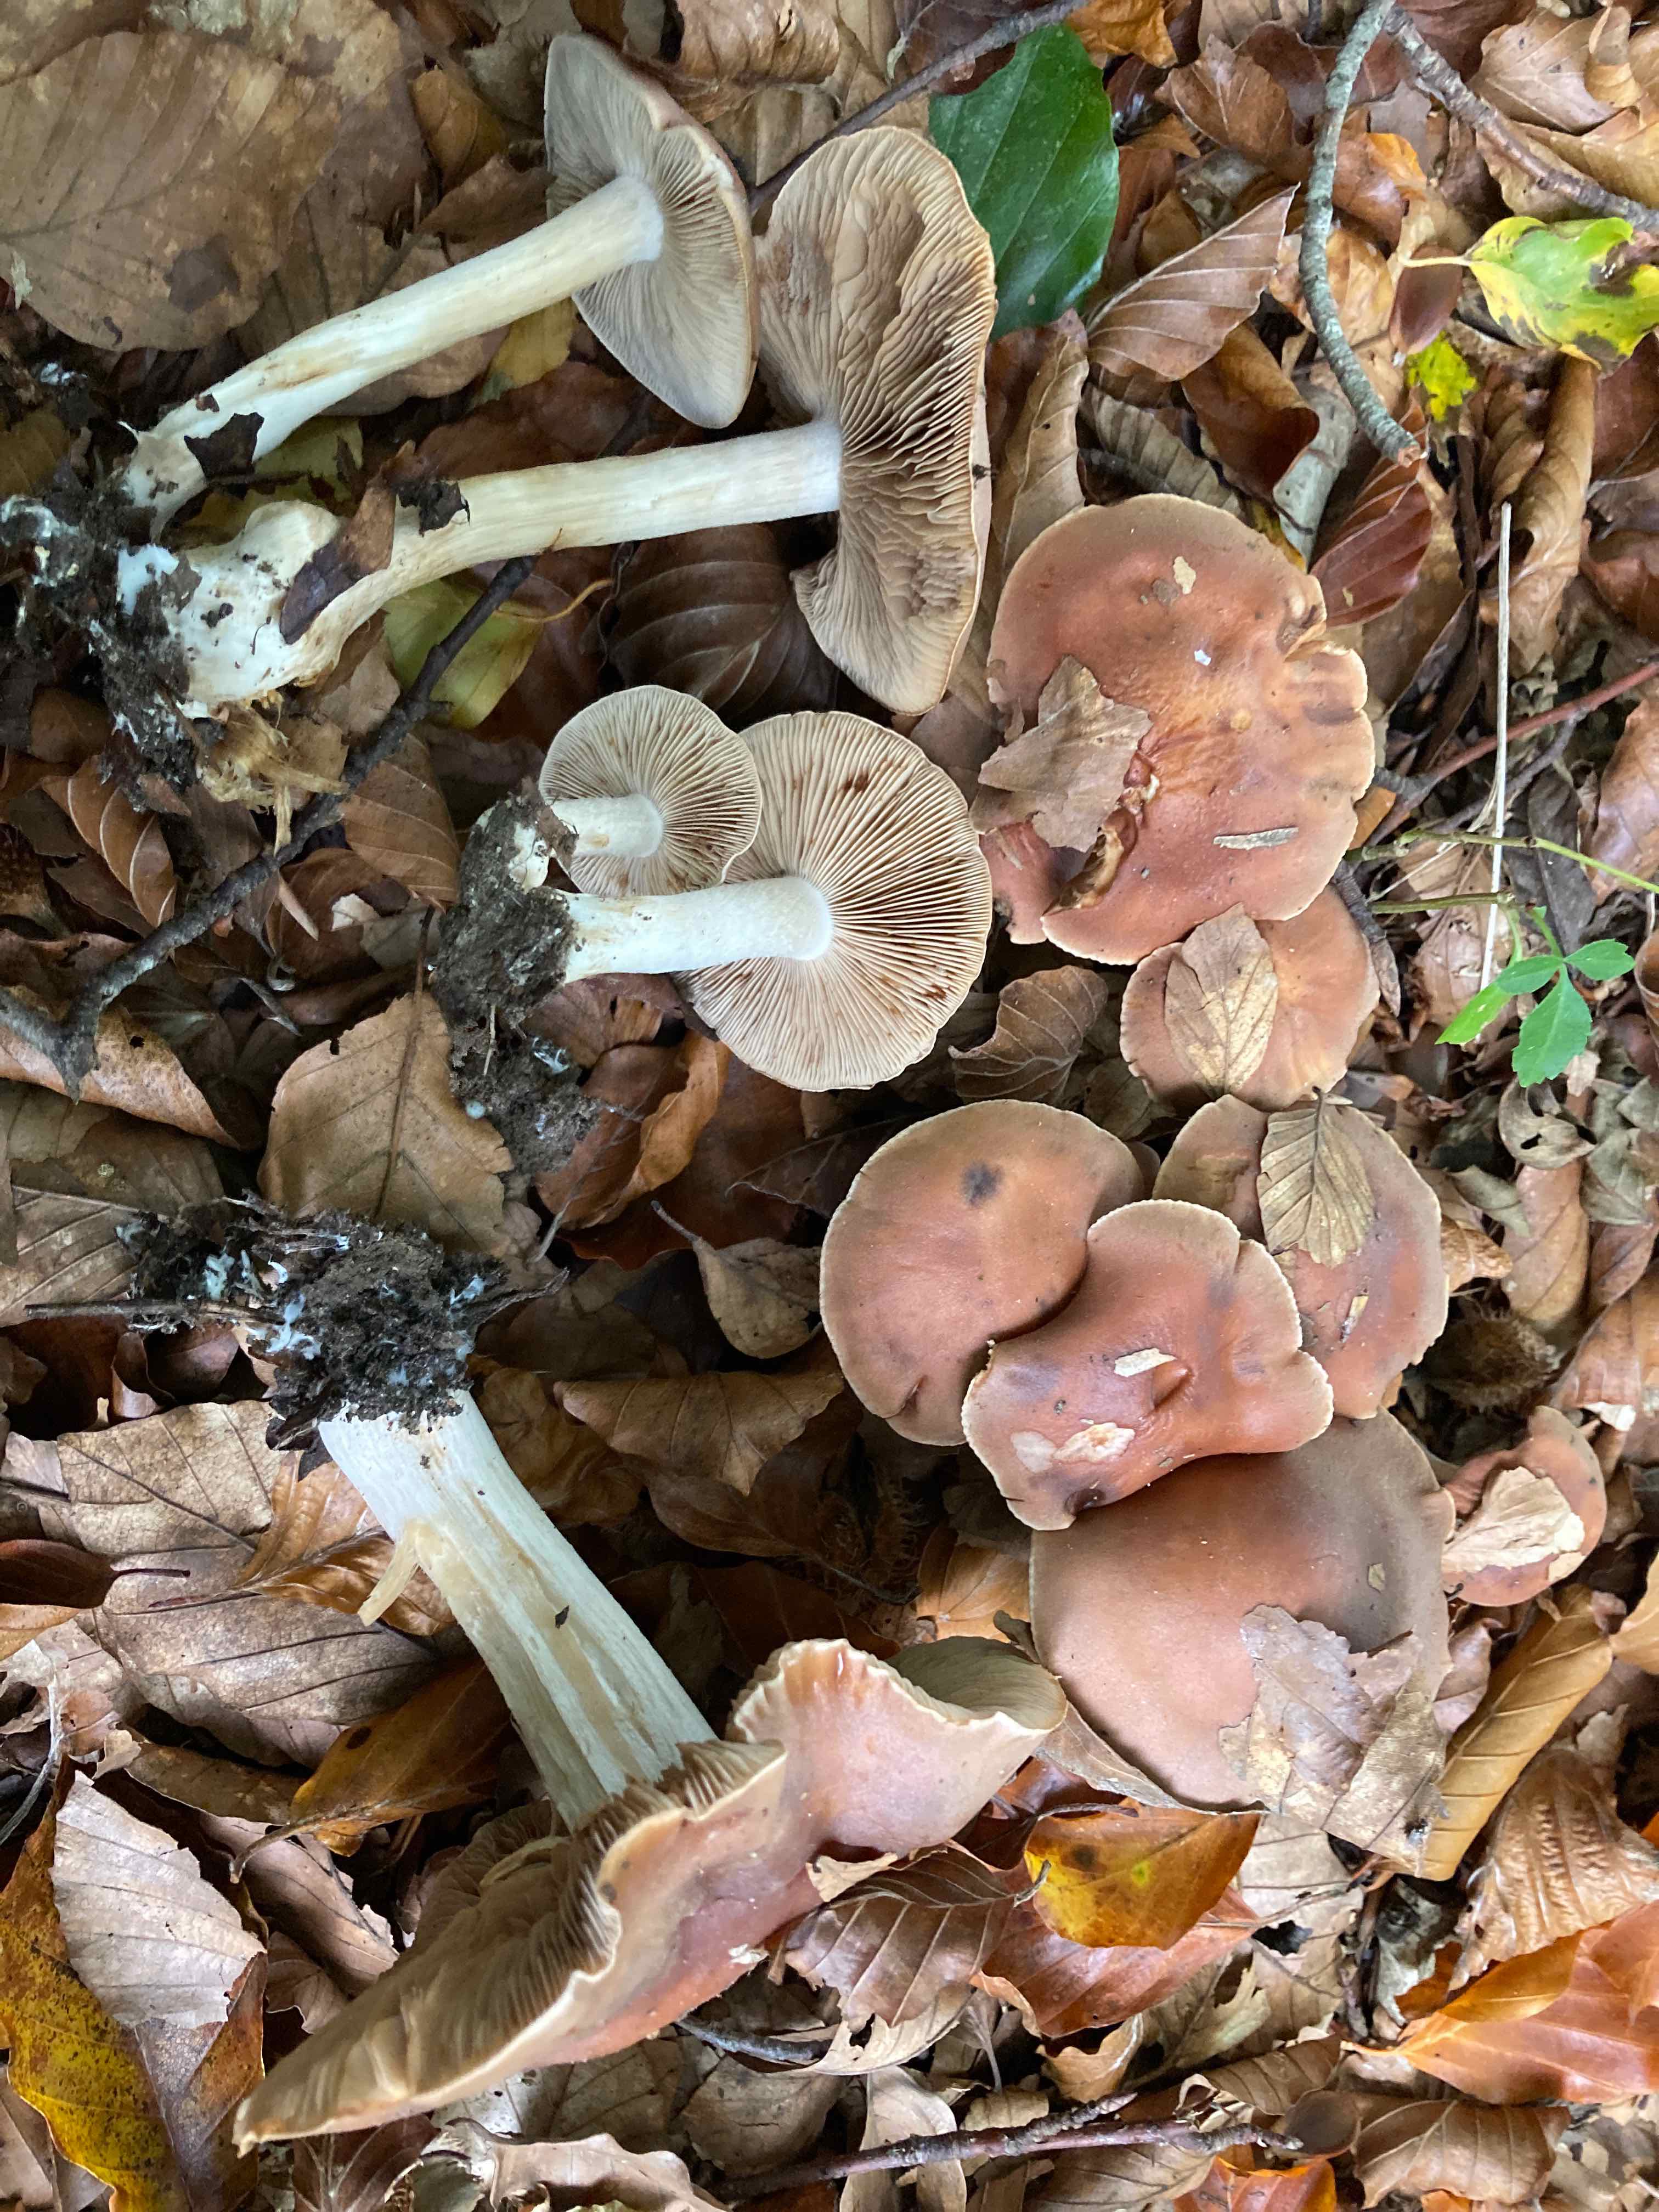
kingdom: Fungi
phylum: Basidiomycota
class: Agaricomycetes
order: Agaricales
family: Hymenogastraceae
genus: Hebeloma
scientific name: Hebeloma theobrominum
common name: rødbrun tåreblad
